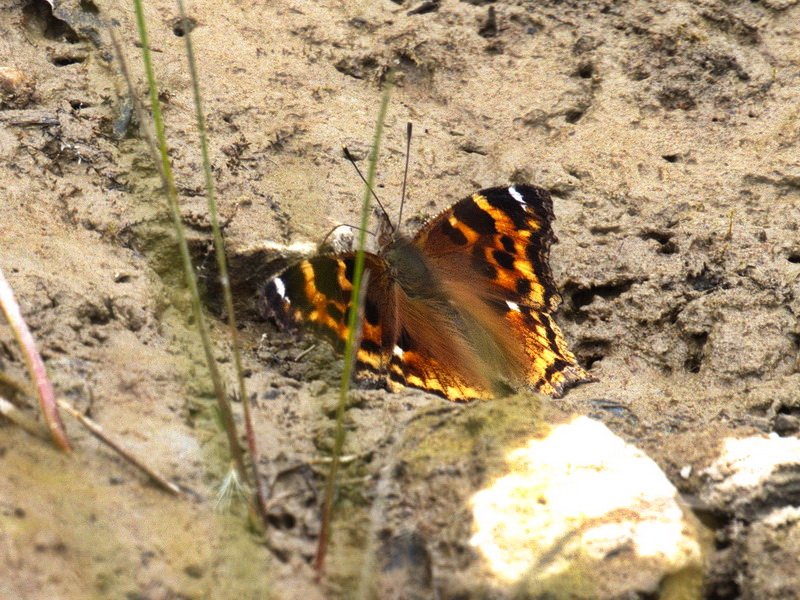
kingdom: Animalia
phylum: Arthropoda
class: Insecta
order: Lepidoptera
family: Nymphalidae
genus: Polygonia
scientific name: Polygonia vaualbum
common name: Compton Tortoiseshell
